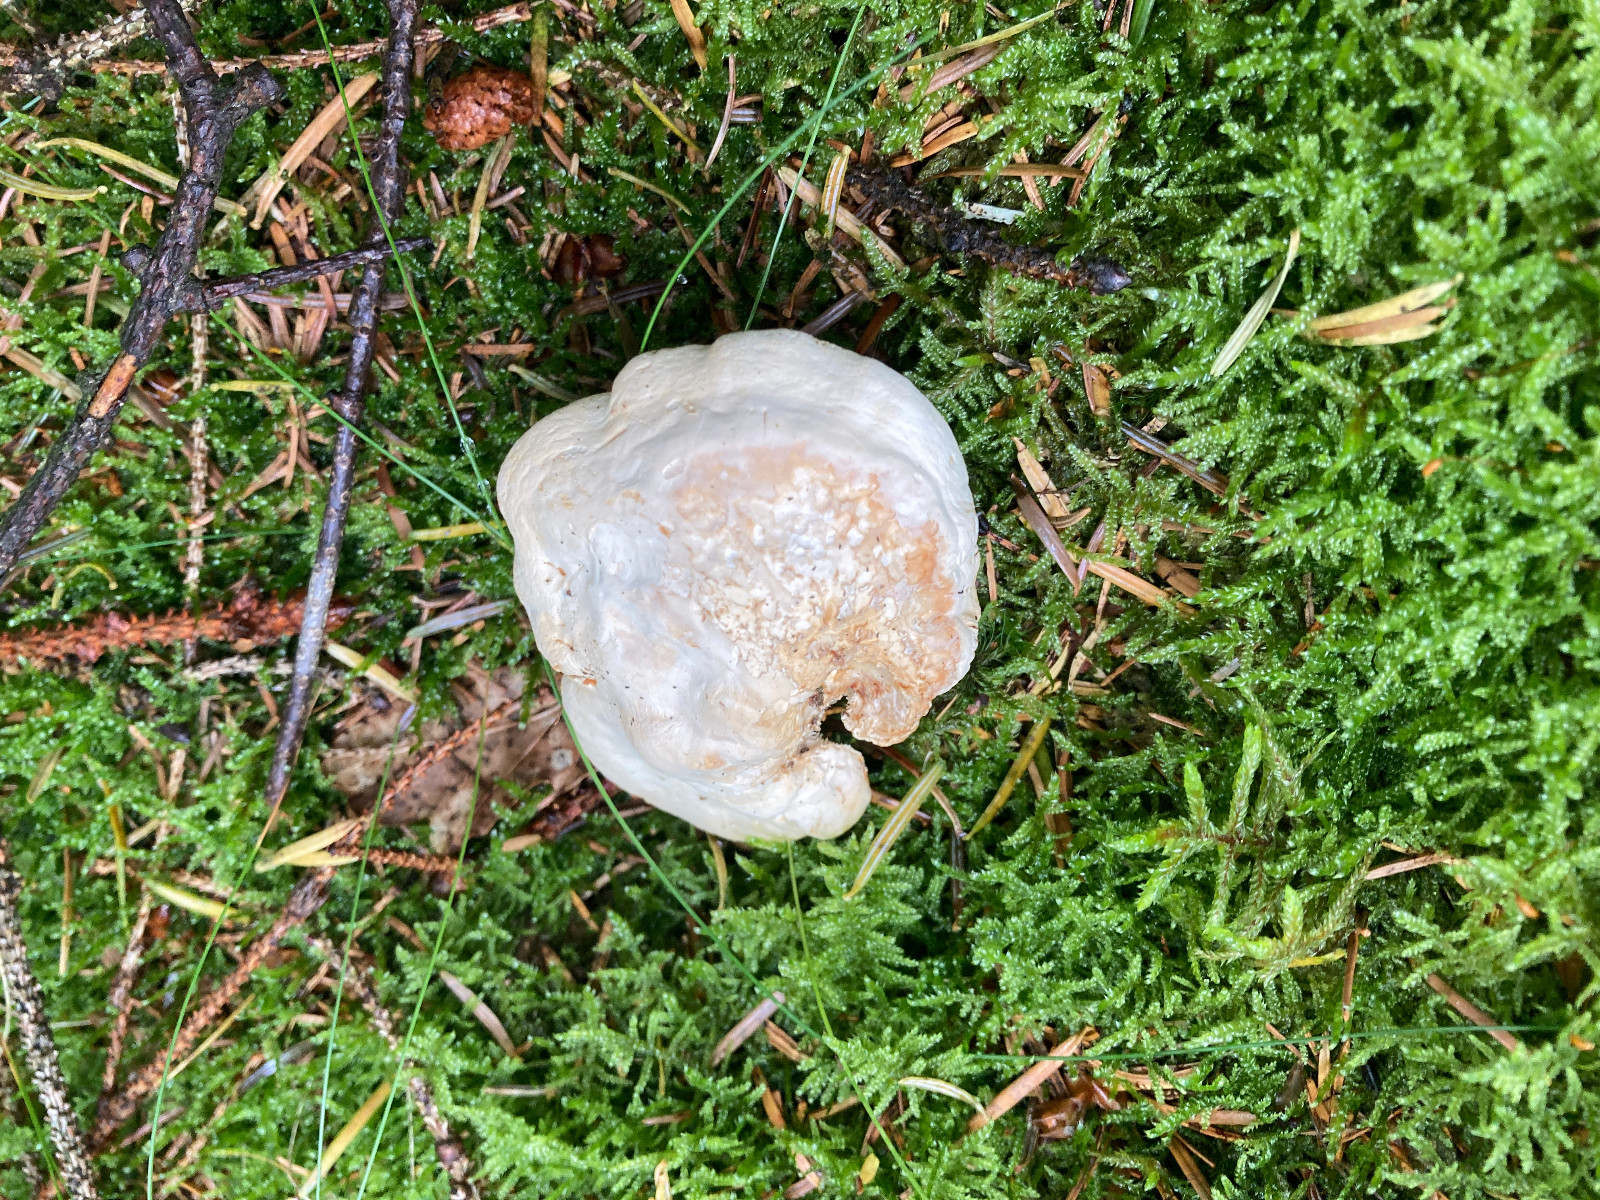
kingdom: Fungi
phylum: Basidiomycota
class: Agaricomycetes
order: Cantharellales
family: Hydnaceae
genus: Hydnum
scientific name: Hydnum repandum
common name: almindelig pigsvamp
